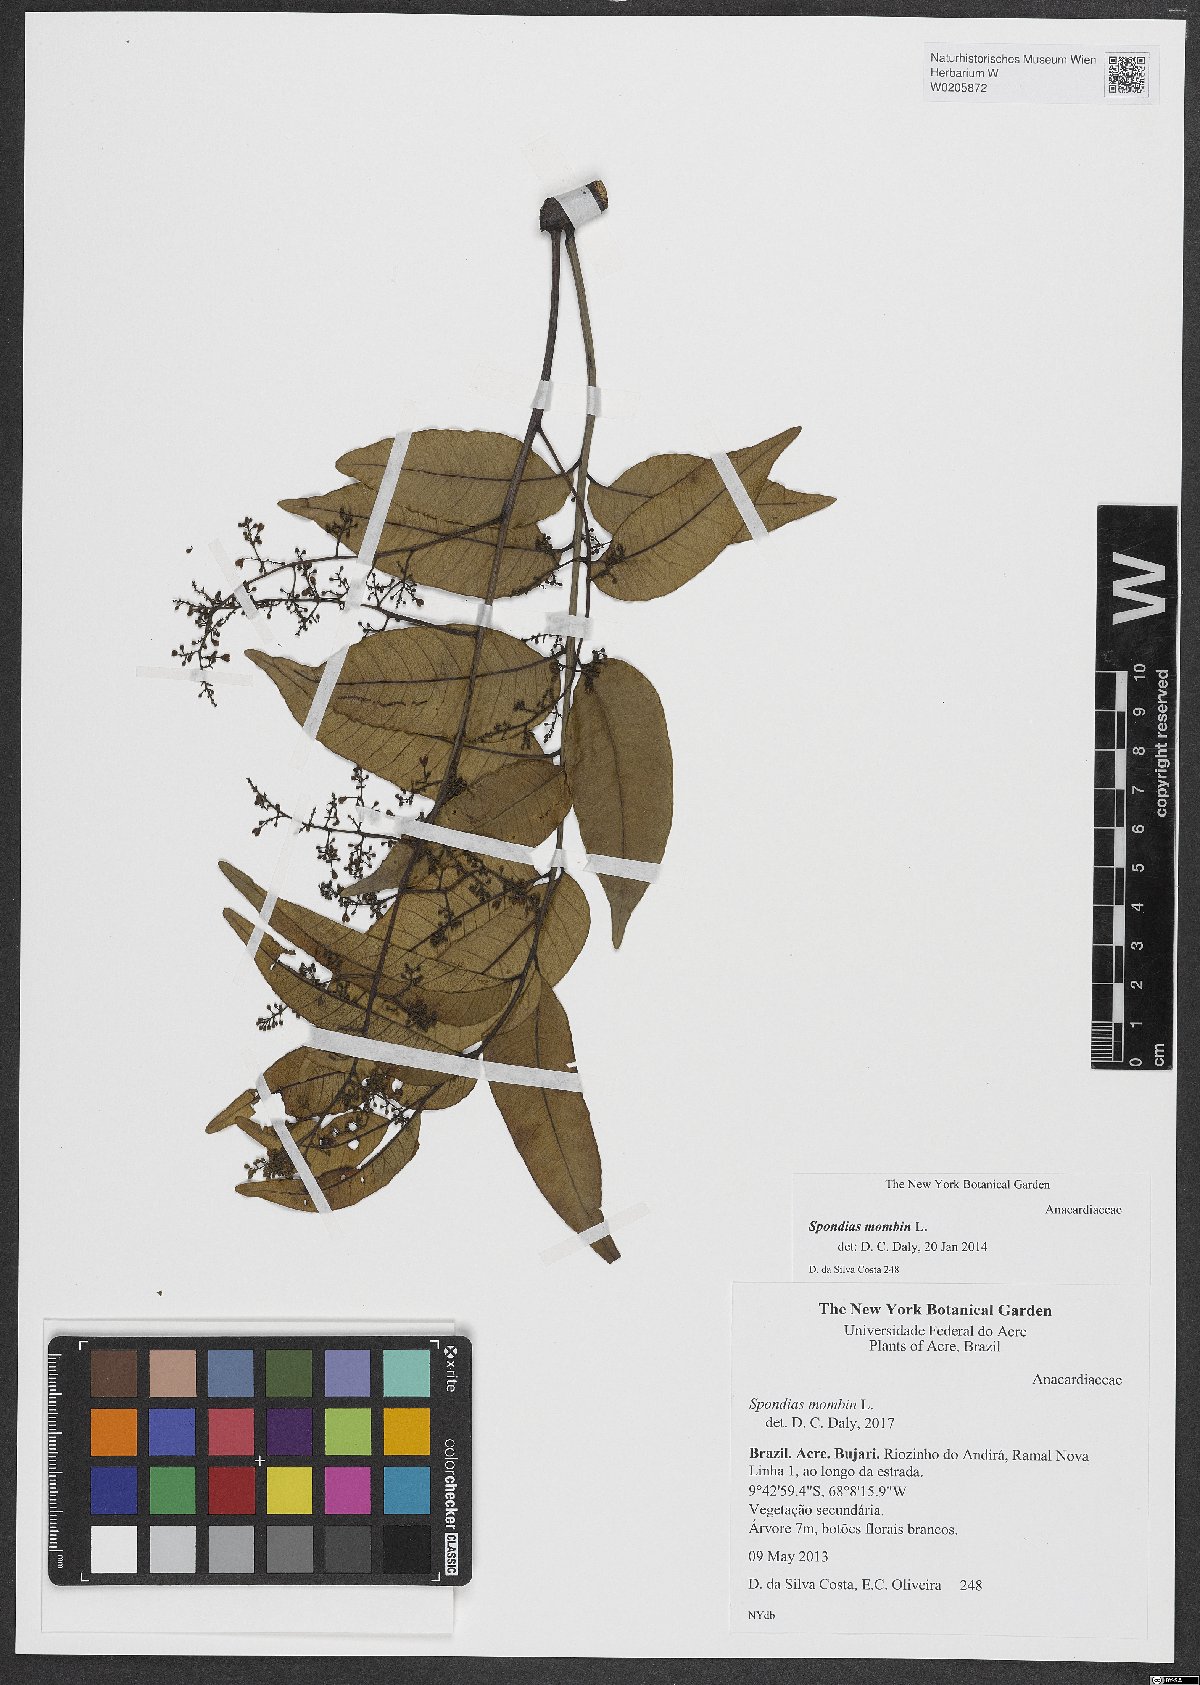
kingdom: Plantae
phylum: Tracheophyta
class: Magnoliopsida
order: Sapindales
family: Anacardiaceae
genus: Spondias
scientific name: Spondias mombin
